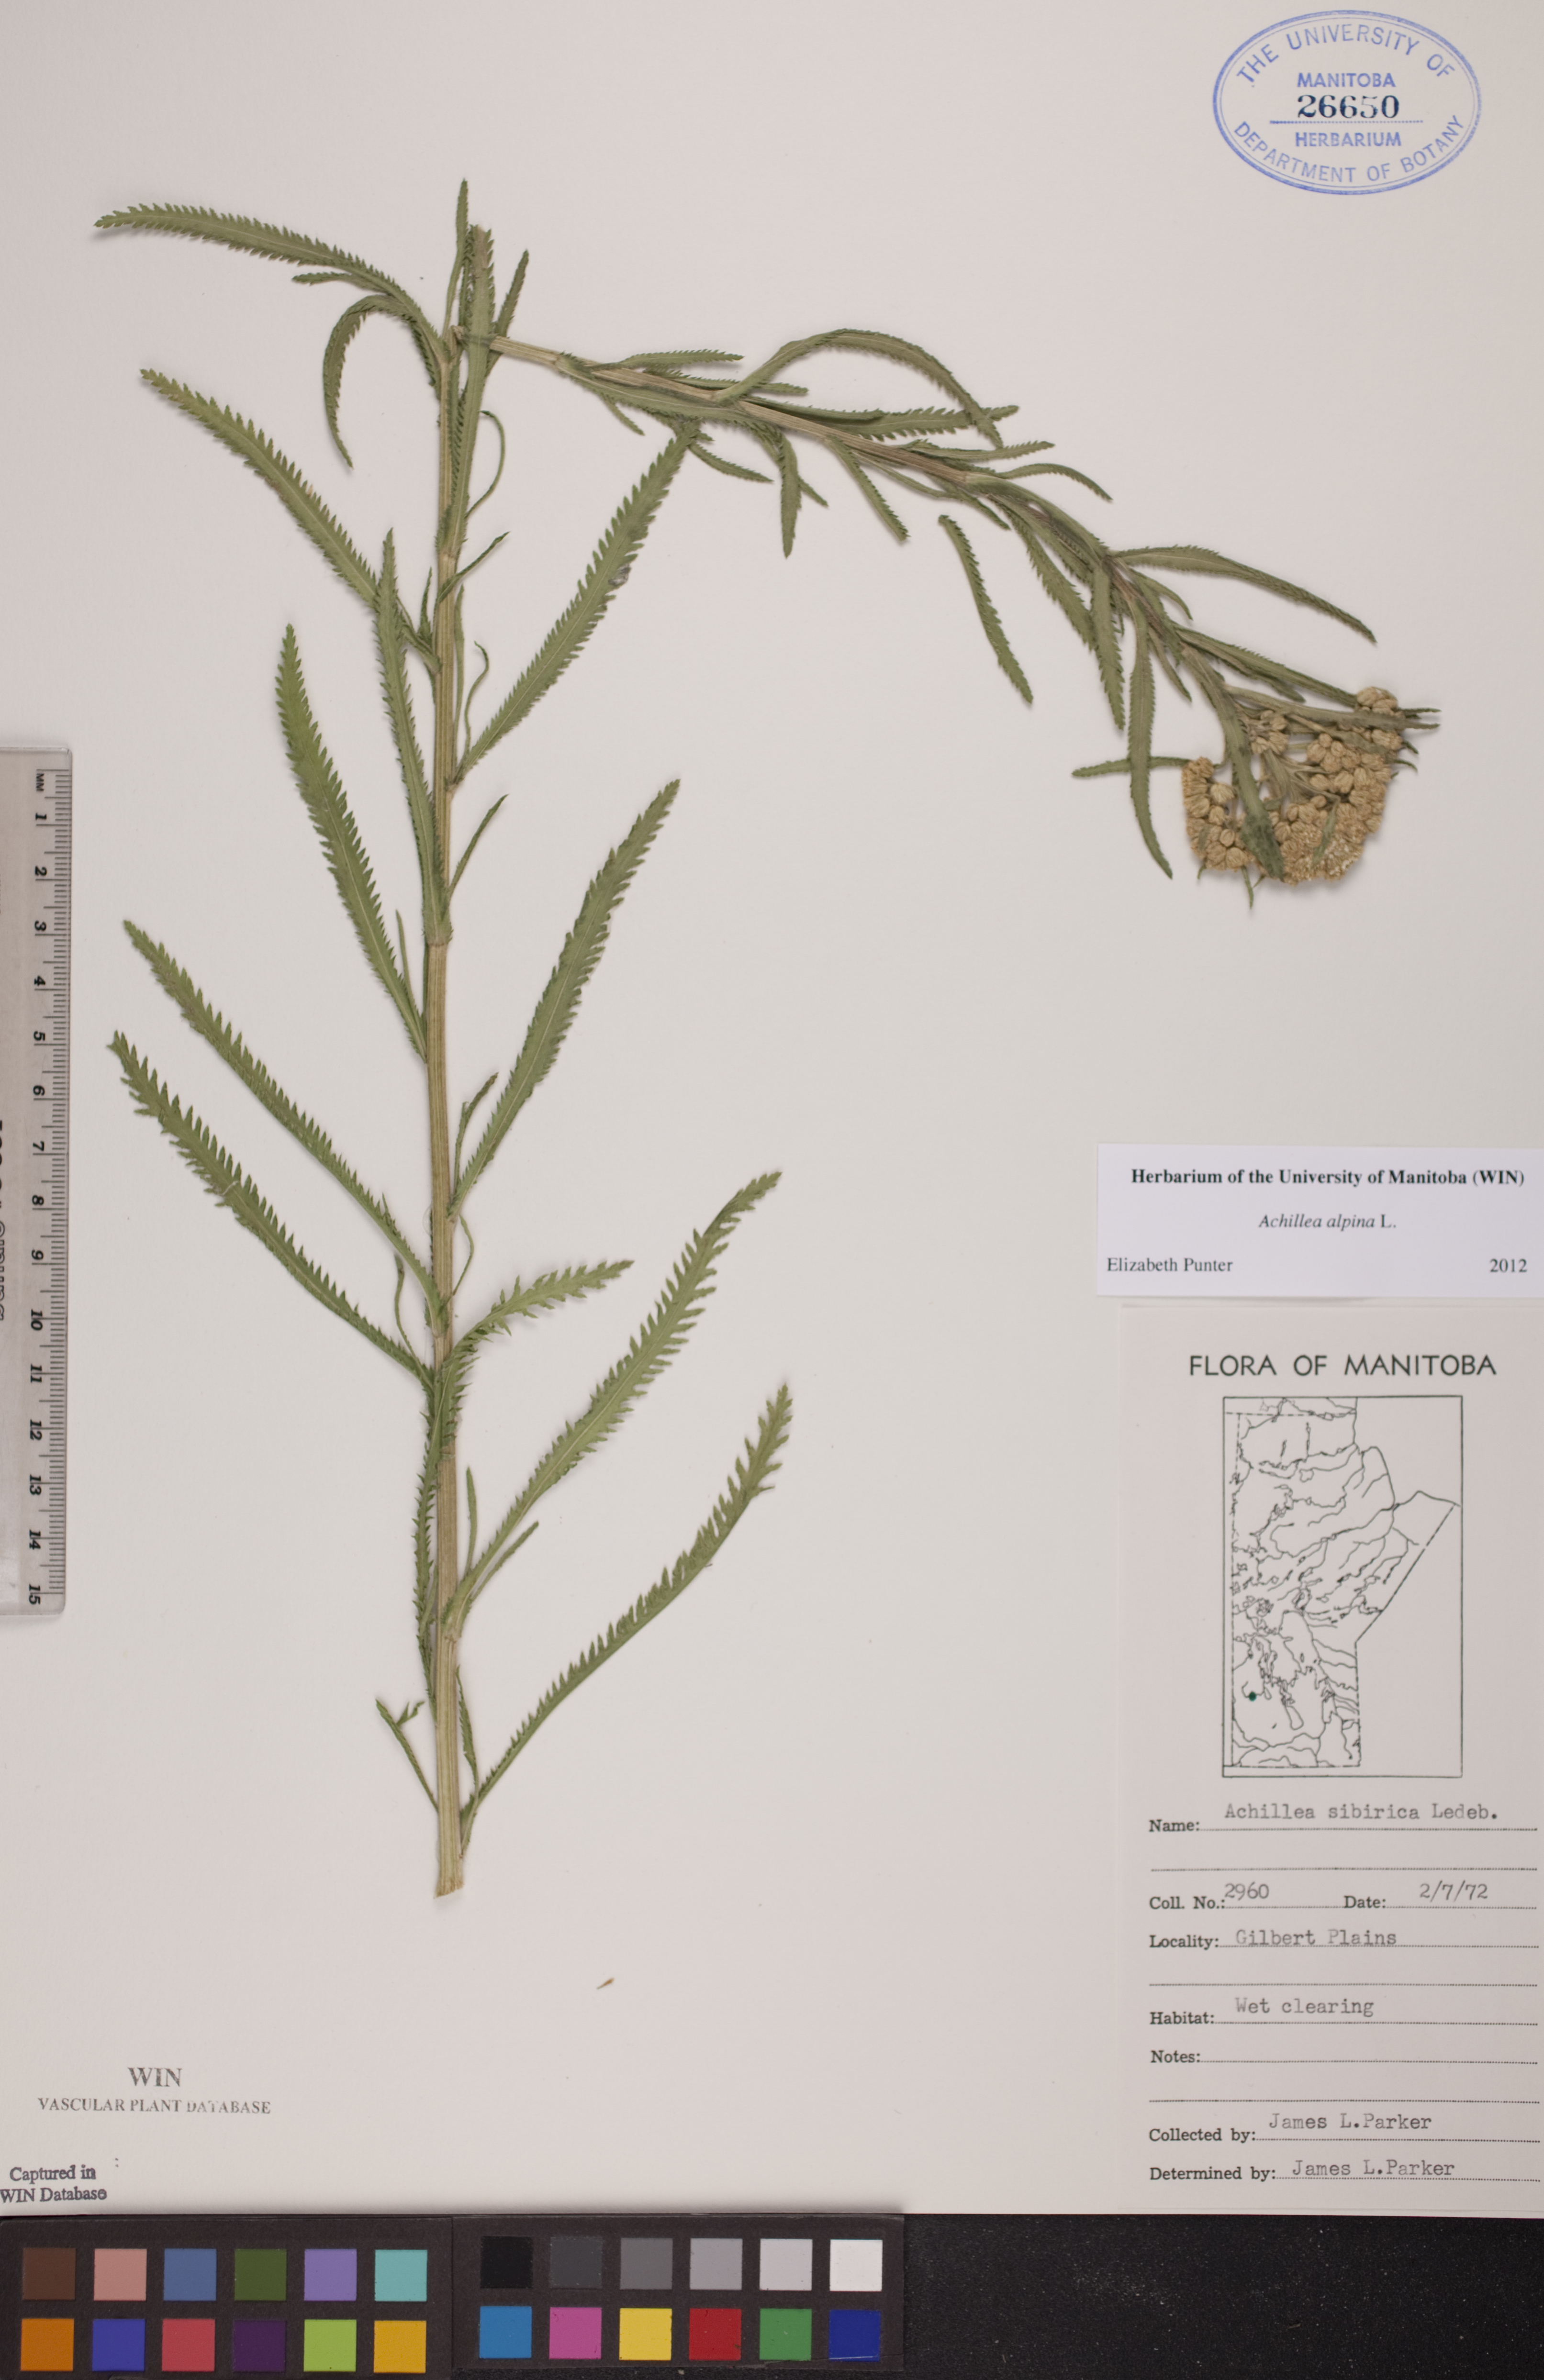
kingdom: Plantae
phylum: Tracheophyta
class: Magnoliopsida
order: Asterales
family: Asteraceae
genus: Achillea
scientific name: Achillea alpina
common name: Siberian yarrow
